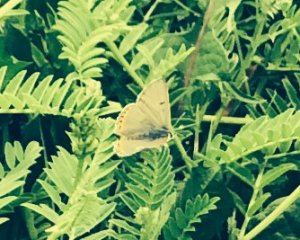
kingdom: Animalia
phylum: Arthropoda
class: Insecta
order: Lepidoptera
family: Lycaenidae
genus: Nacaduba
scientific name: Nacaduba dyopa
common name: Gray Copper
